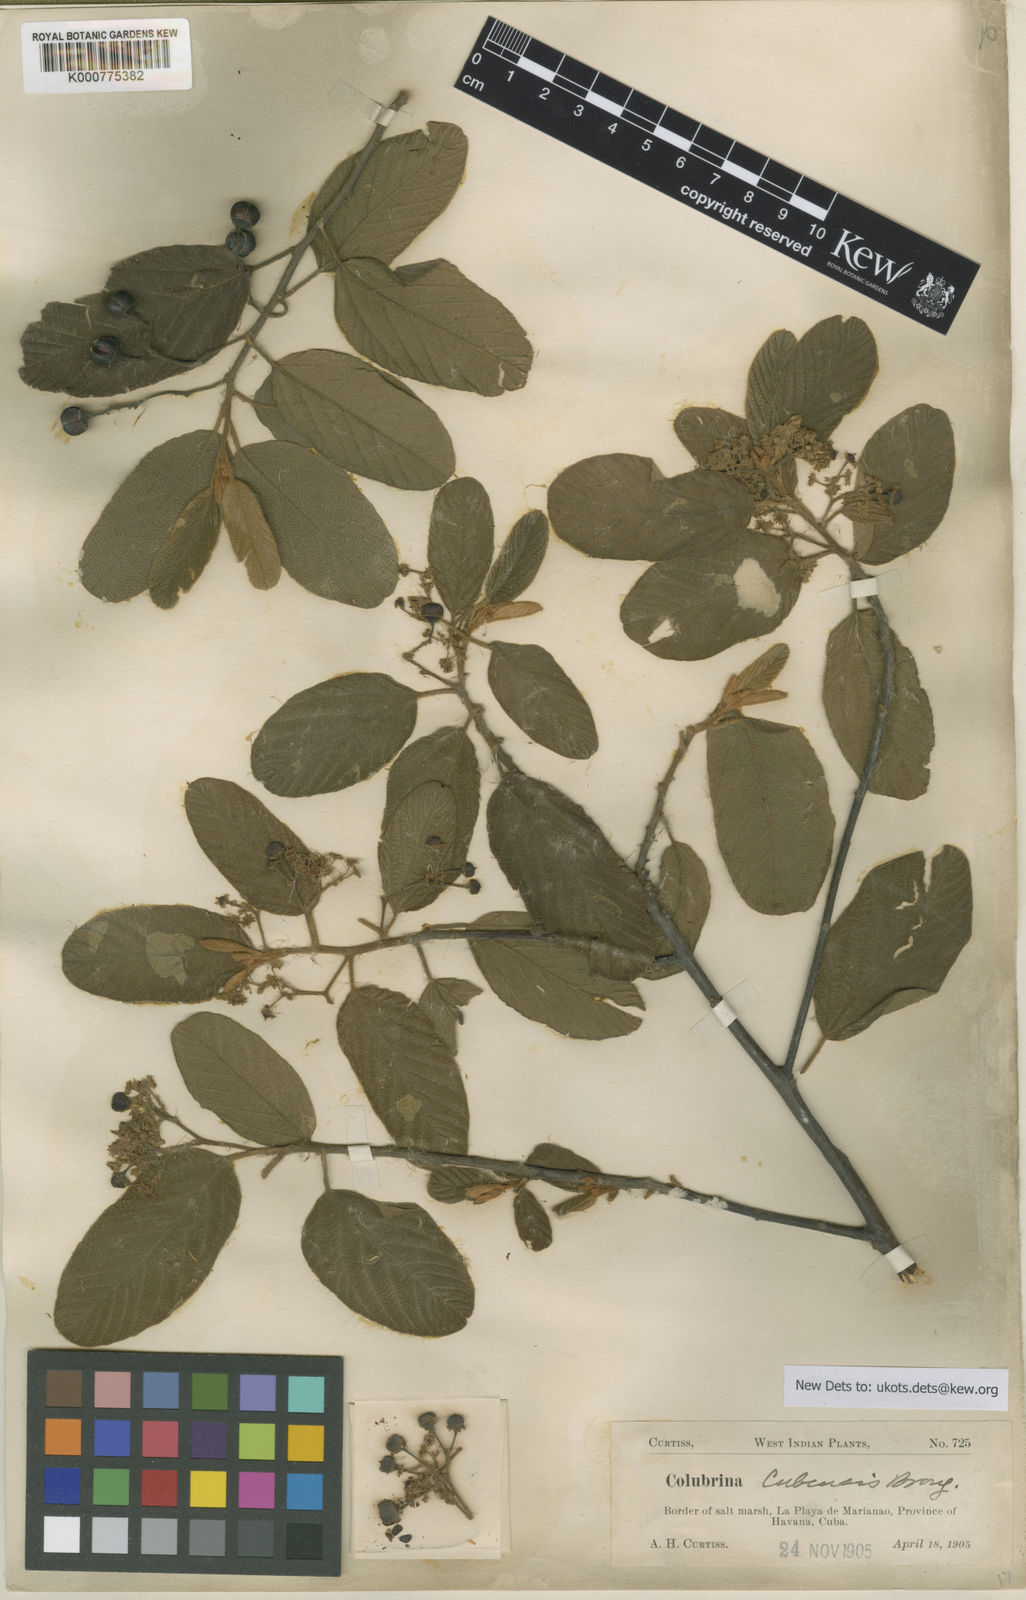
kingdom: Plantae
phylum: Tracheophyta
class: Magnoliopsida
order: Rosales
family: Rhamnaceae
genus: Colubrina
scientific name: Colubrina cubensis
